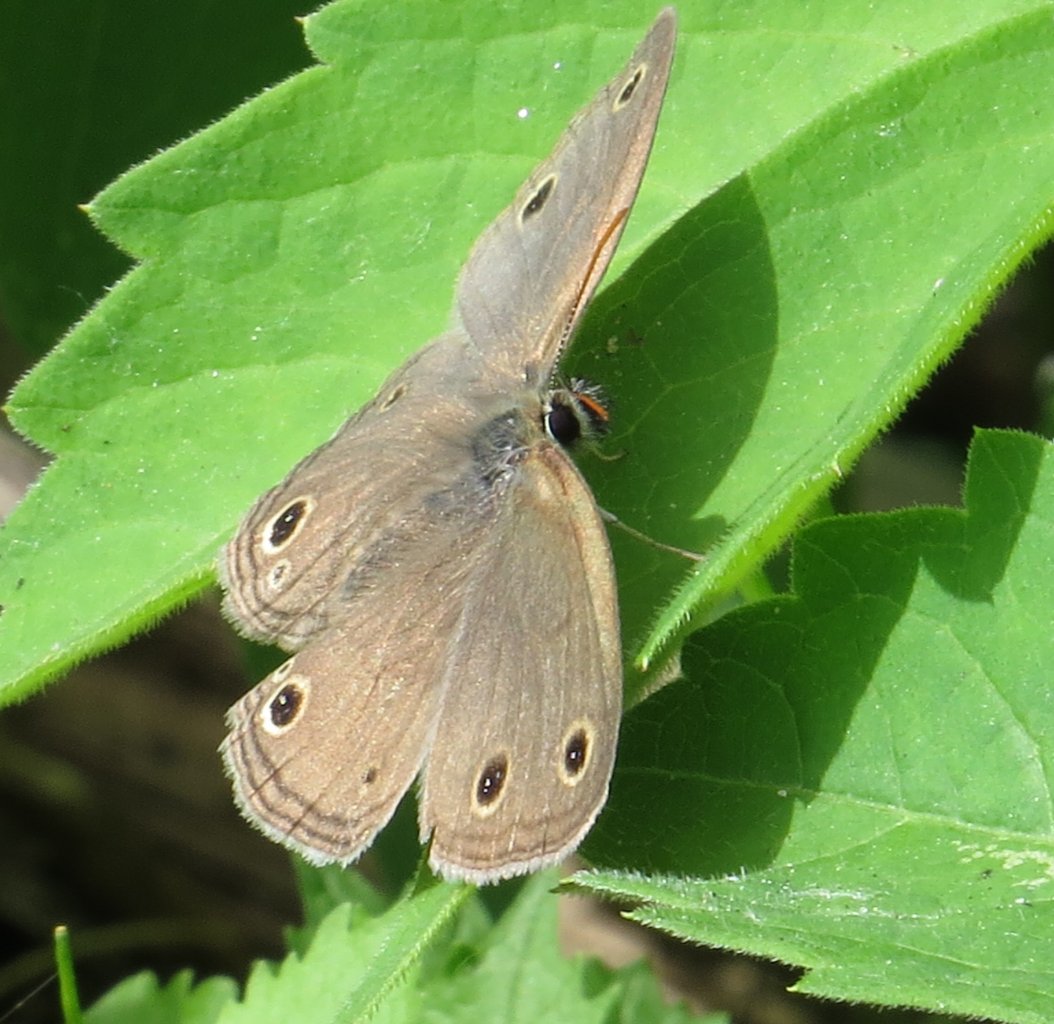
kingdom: Animalia
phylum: Arthropoda
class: Insecta
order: Lepidoptera
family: Nymphalidae
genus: Euptychia
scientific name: Euptychia cymela
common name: Little Wood Satyr
